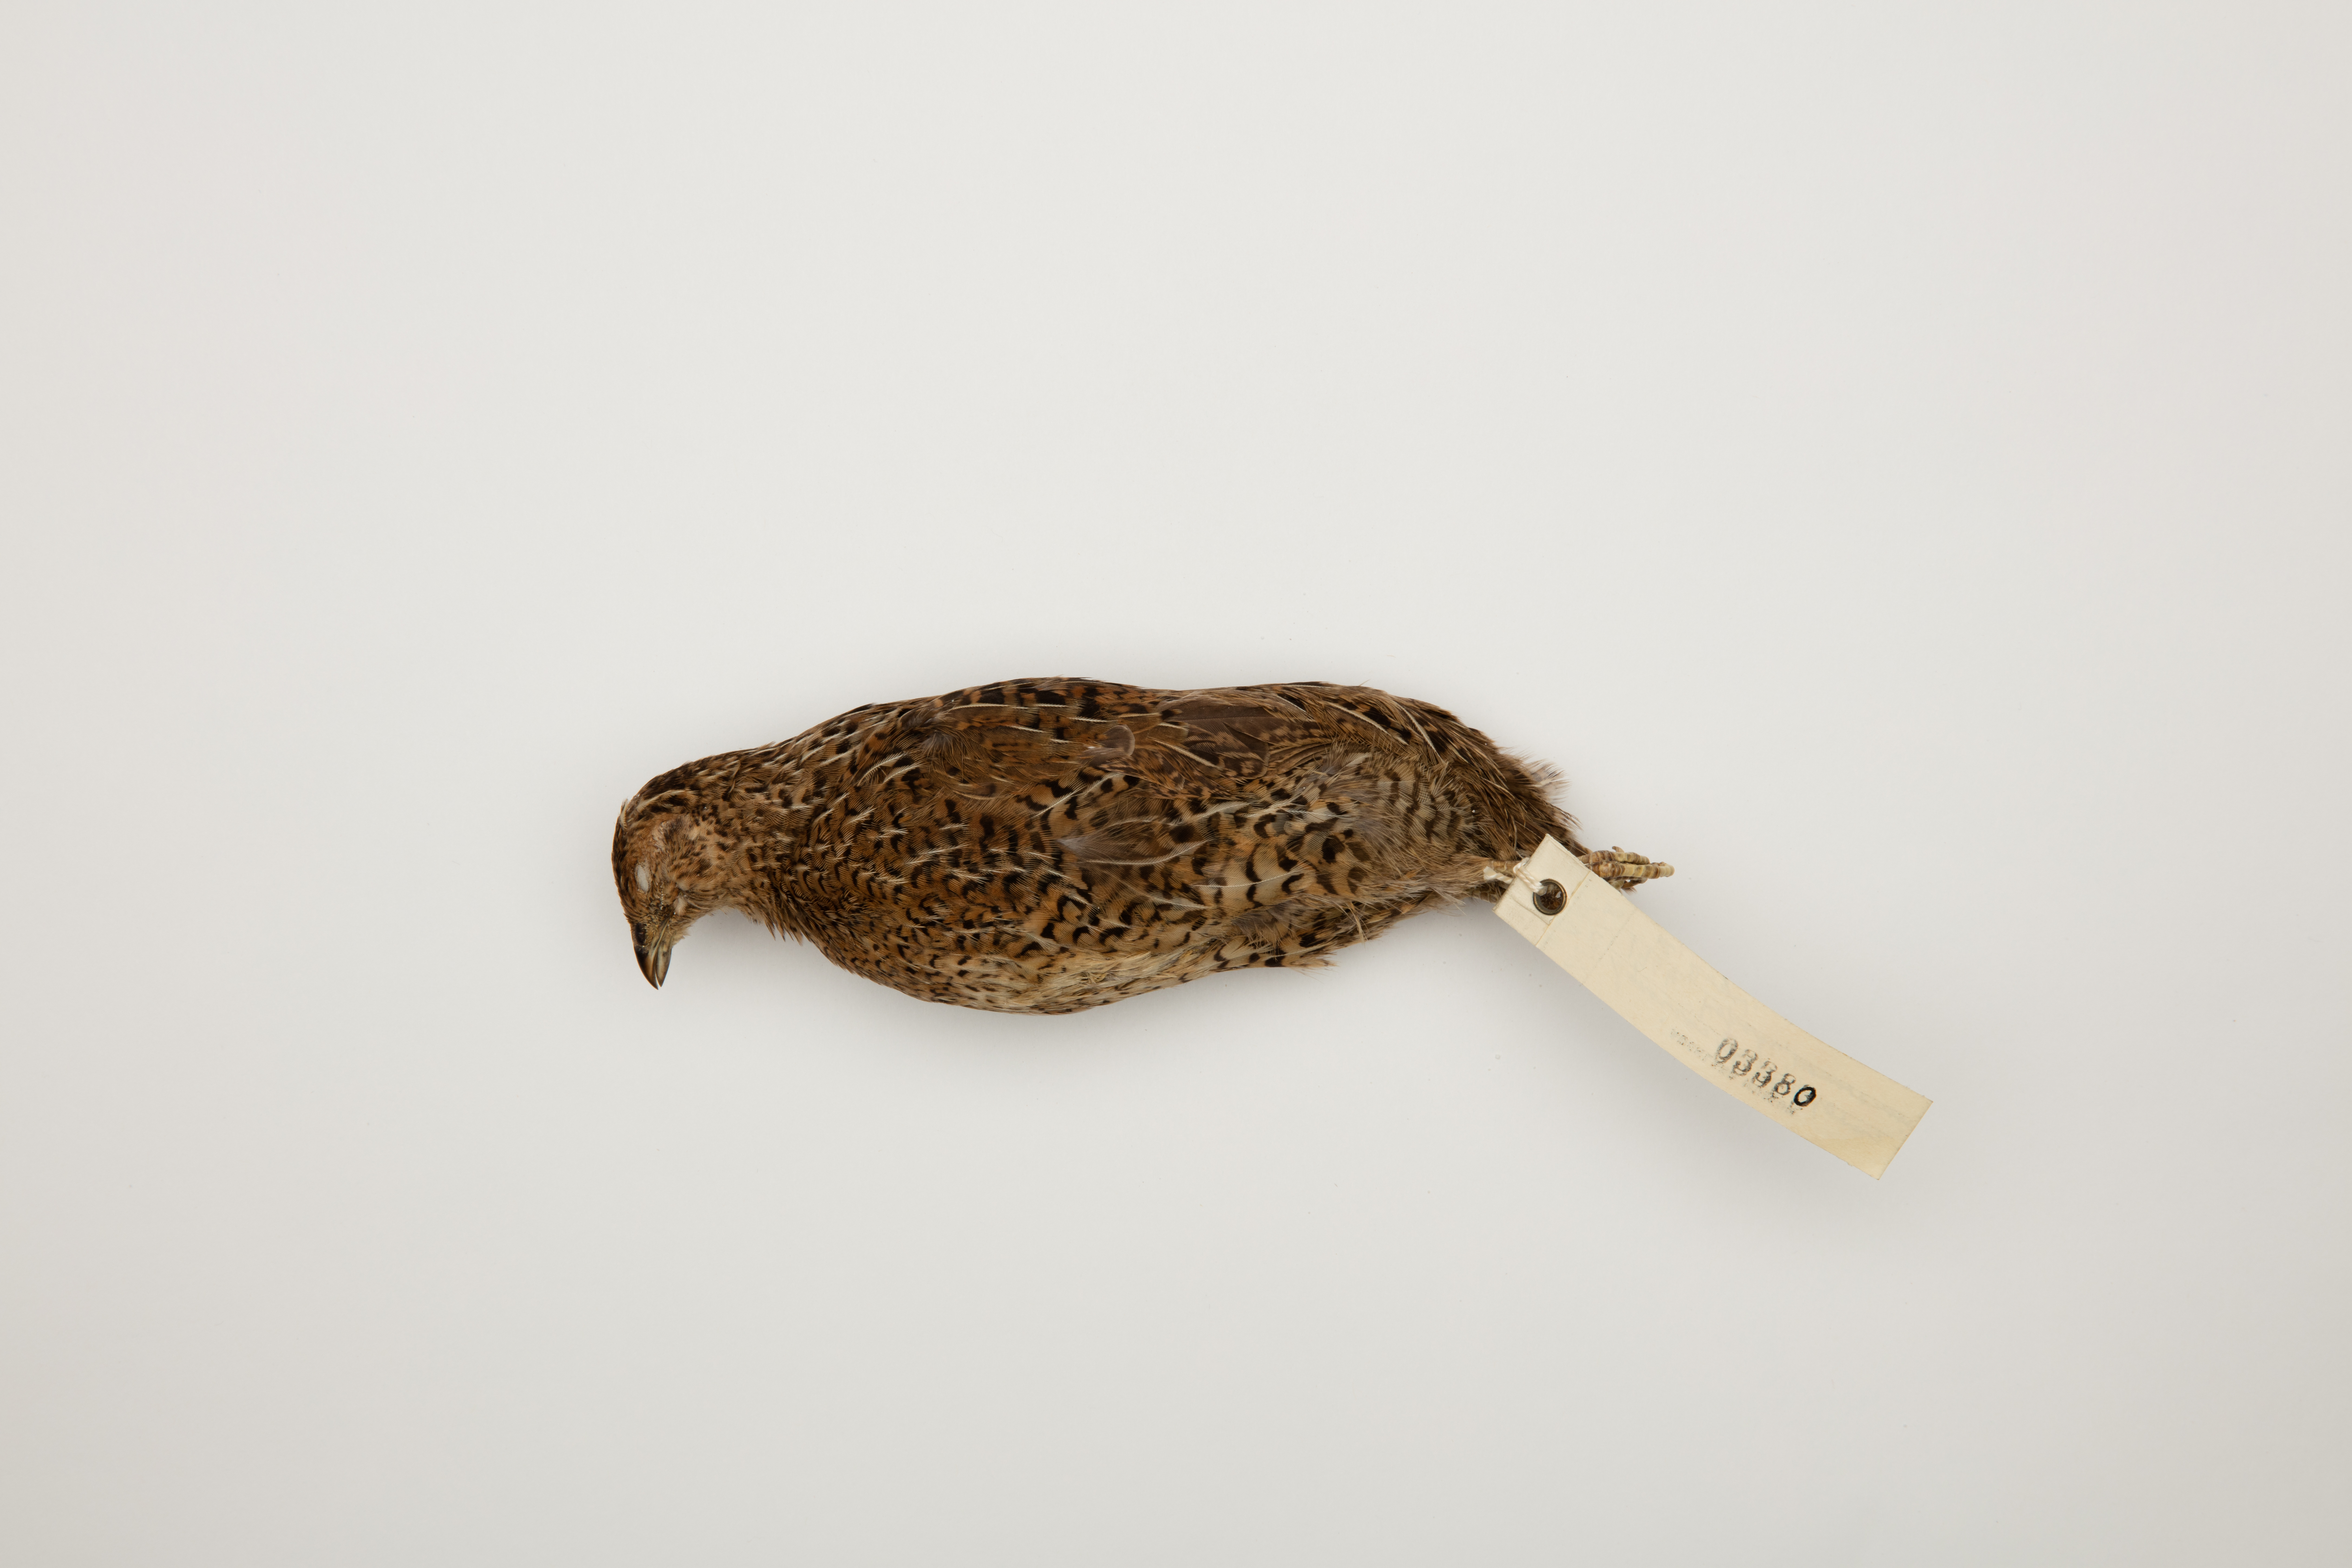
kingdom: Animalia
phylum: Chordata
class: Aves
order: Galliformes
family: Phasianidae
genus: Synoicus
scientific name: Synoicus ypsilophorus
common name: Brown quail
